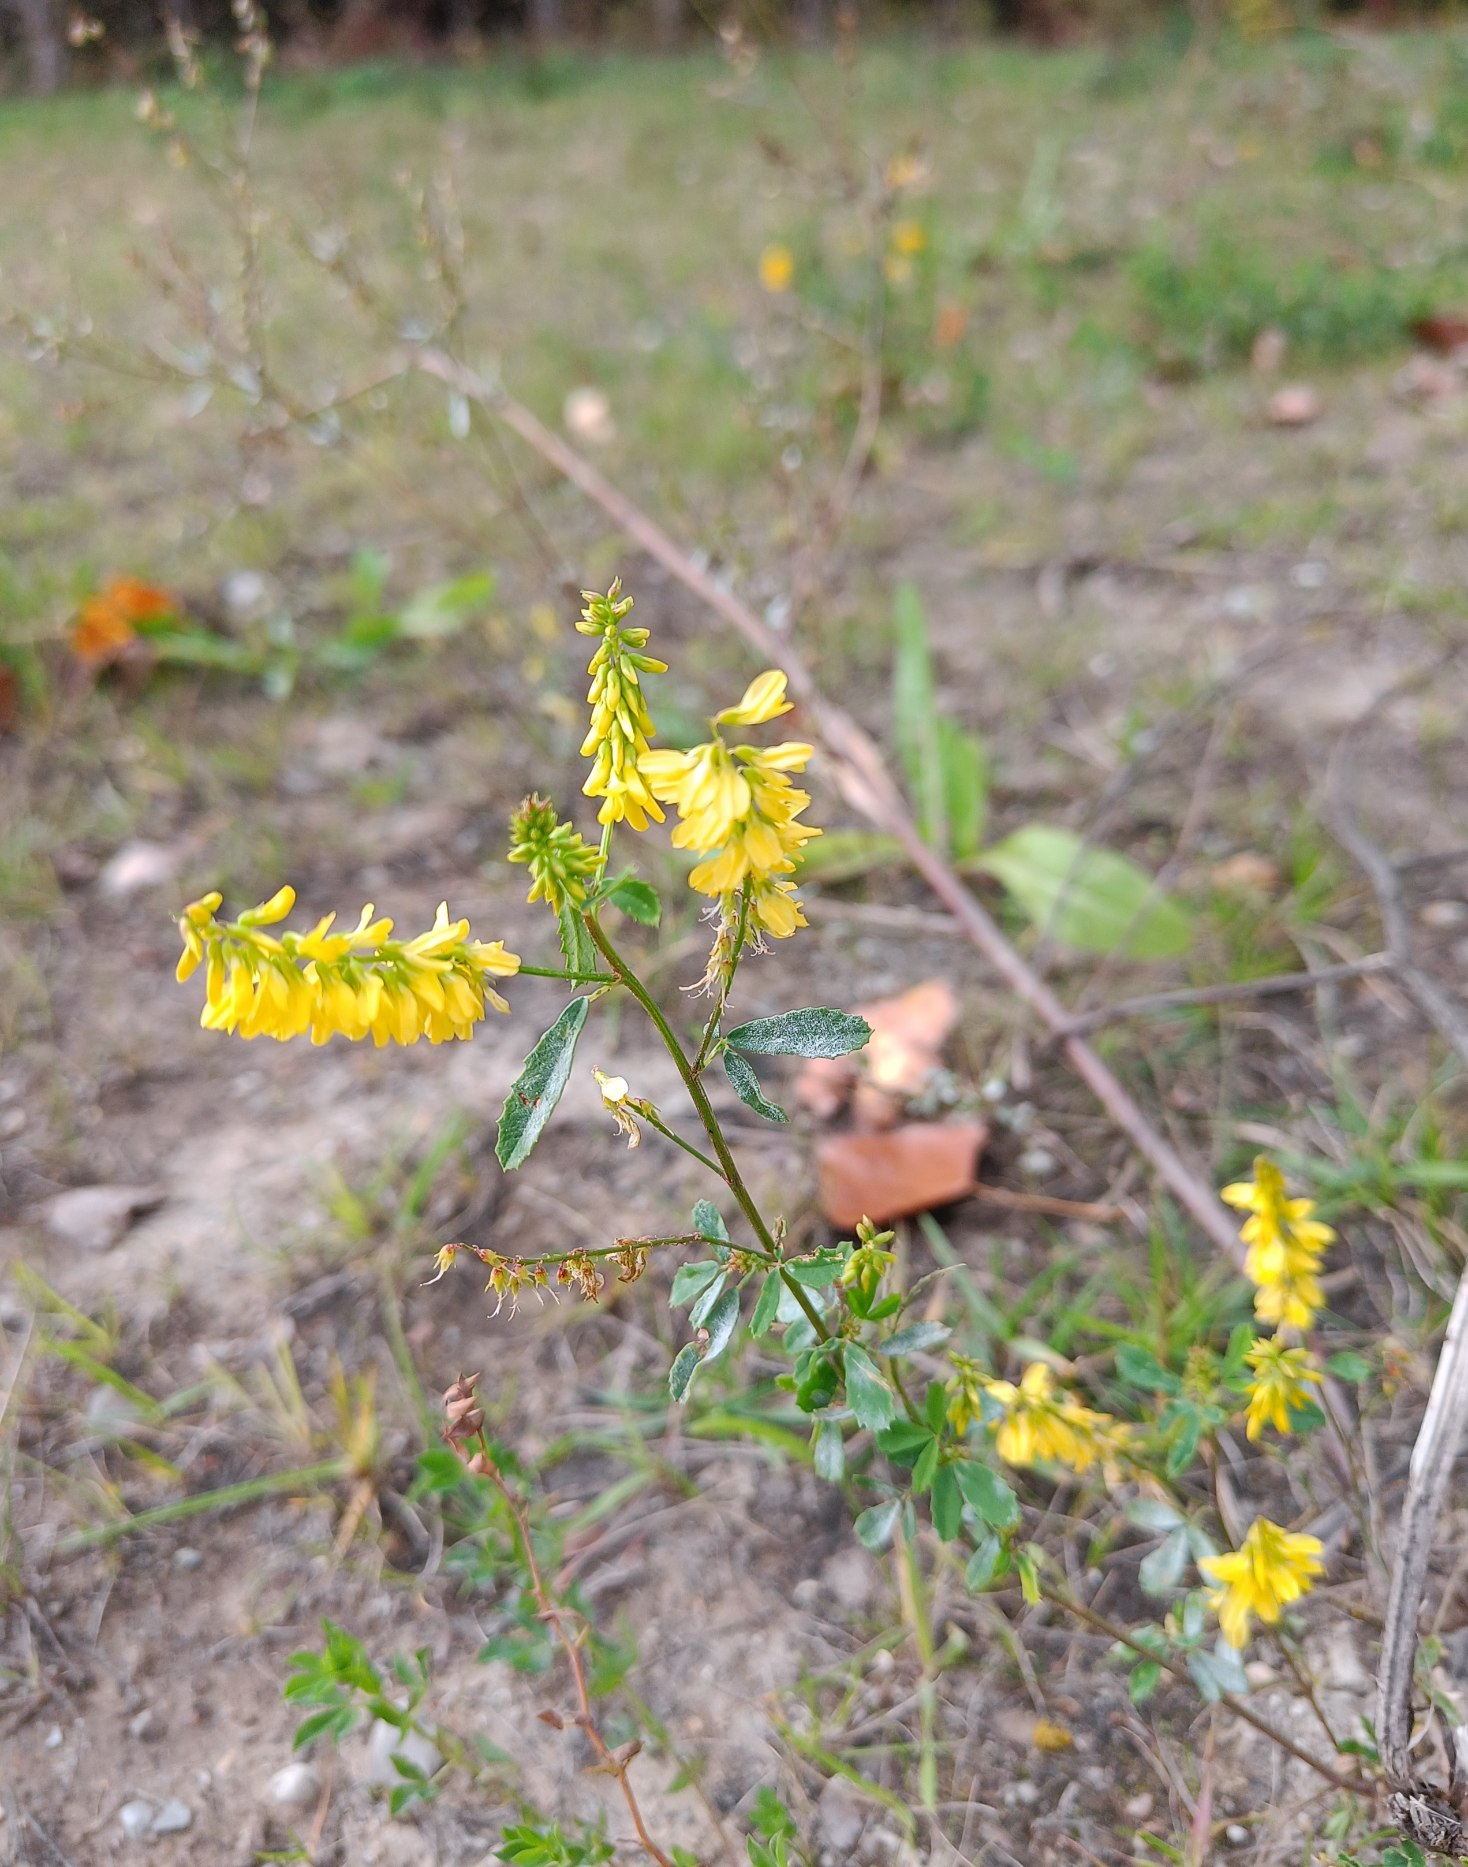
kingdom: Plantae
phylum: Tracheophyta
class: Magnoliopsida
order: Fabales
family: Fabaceae
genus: Melilotus
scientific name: Melilotus officinalis
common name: Mark-stenkløver
